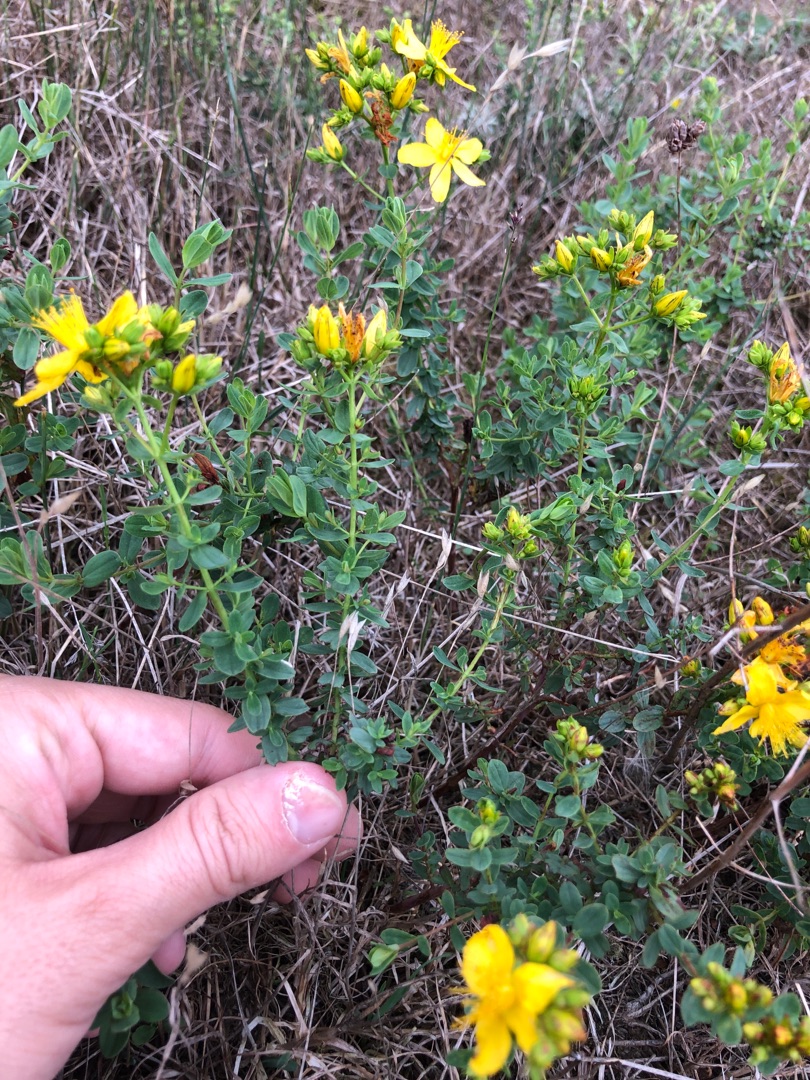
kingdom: Plantae
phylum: Tracheophyta
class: Magnoliopsida
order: Malpighiales
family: Hypericaceae
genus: Hypericum
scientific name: Hypericum perforatum
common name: Prikbladet perikon
